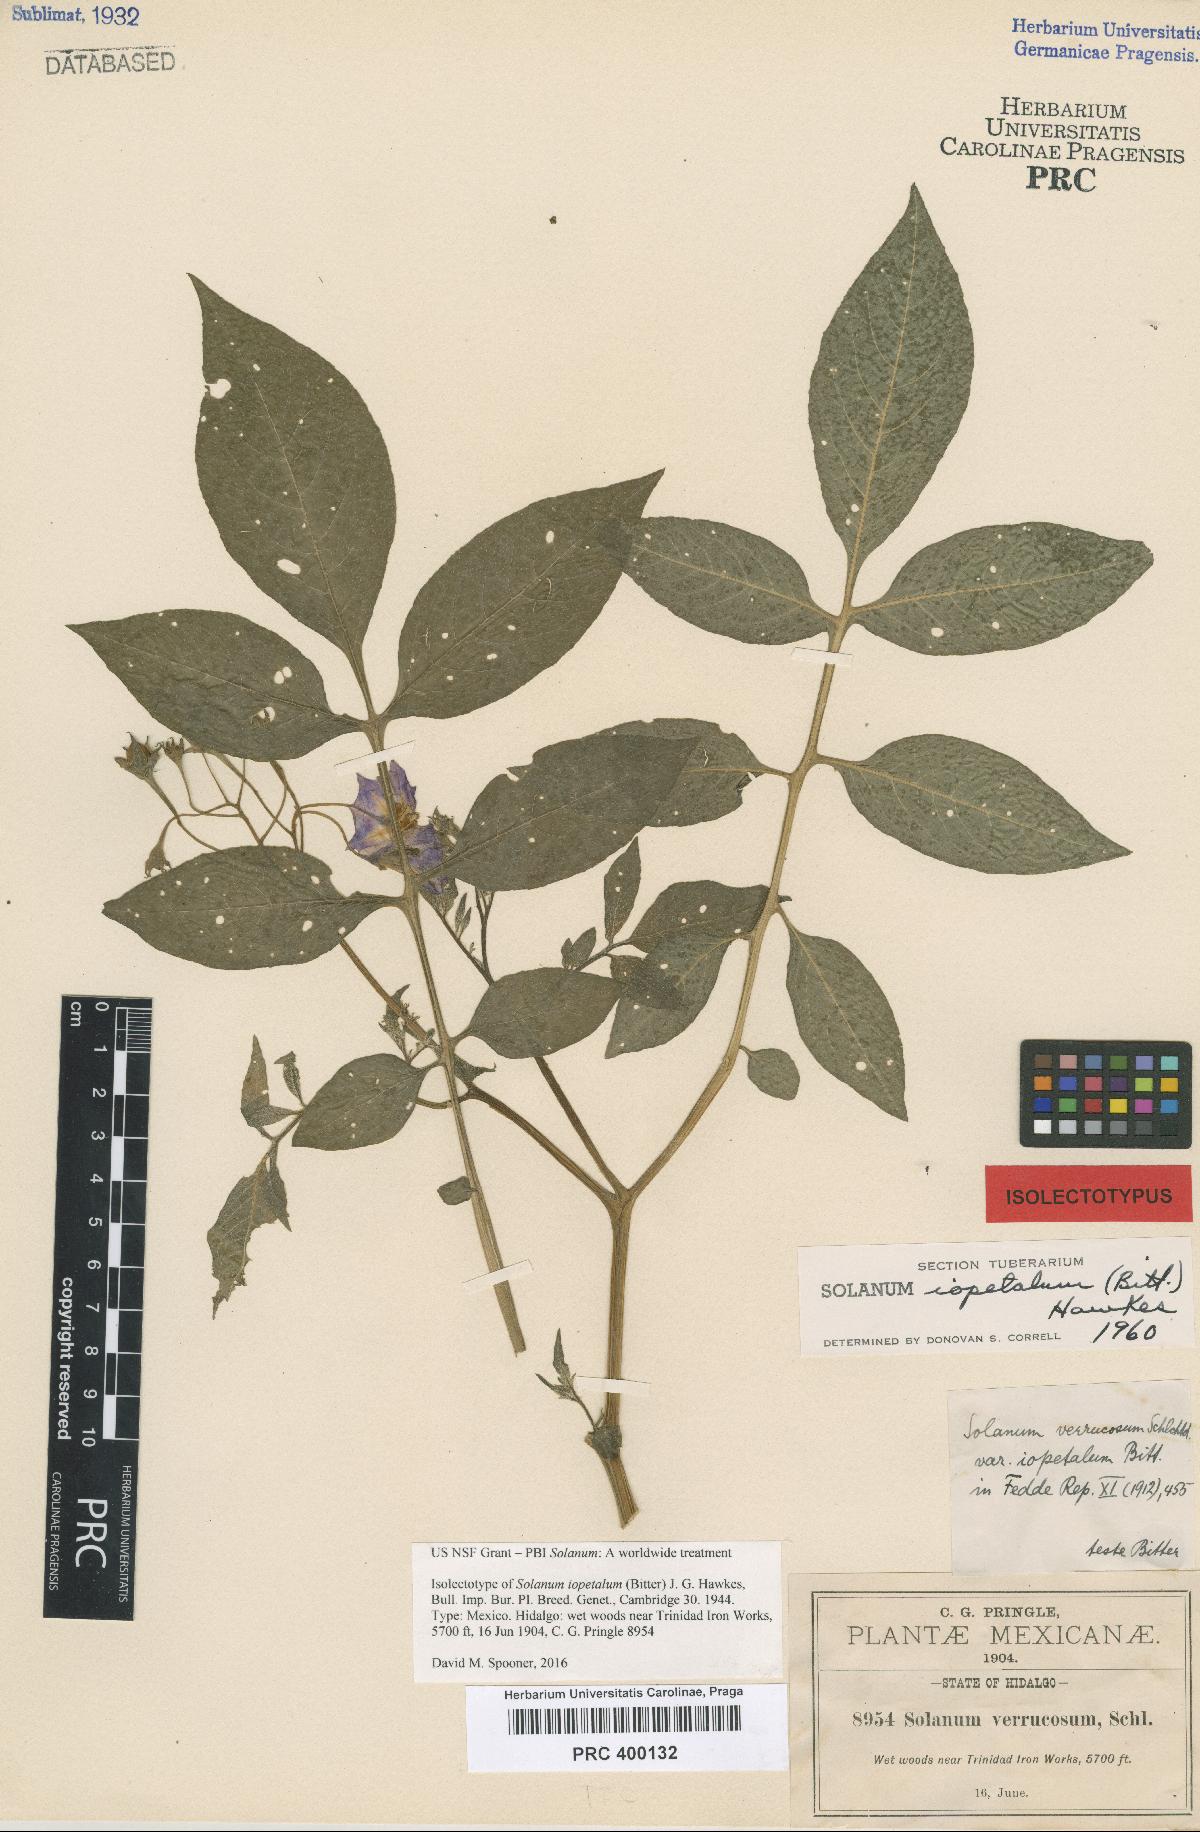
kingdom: Plantae
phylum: Tracheophyta
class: Magnoliopsida
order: Solanales
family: Solanaceae
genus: Solanum
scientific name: Solanum iopetalum
